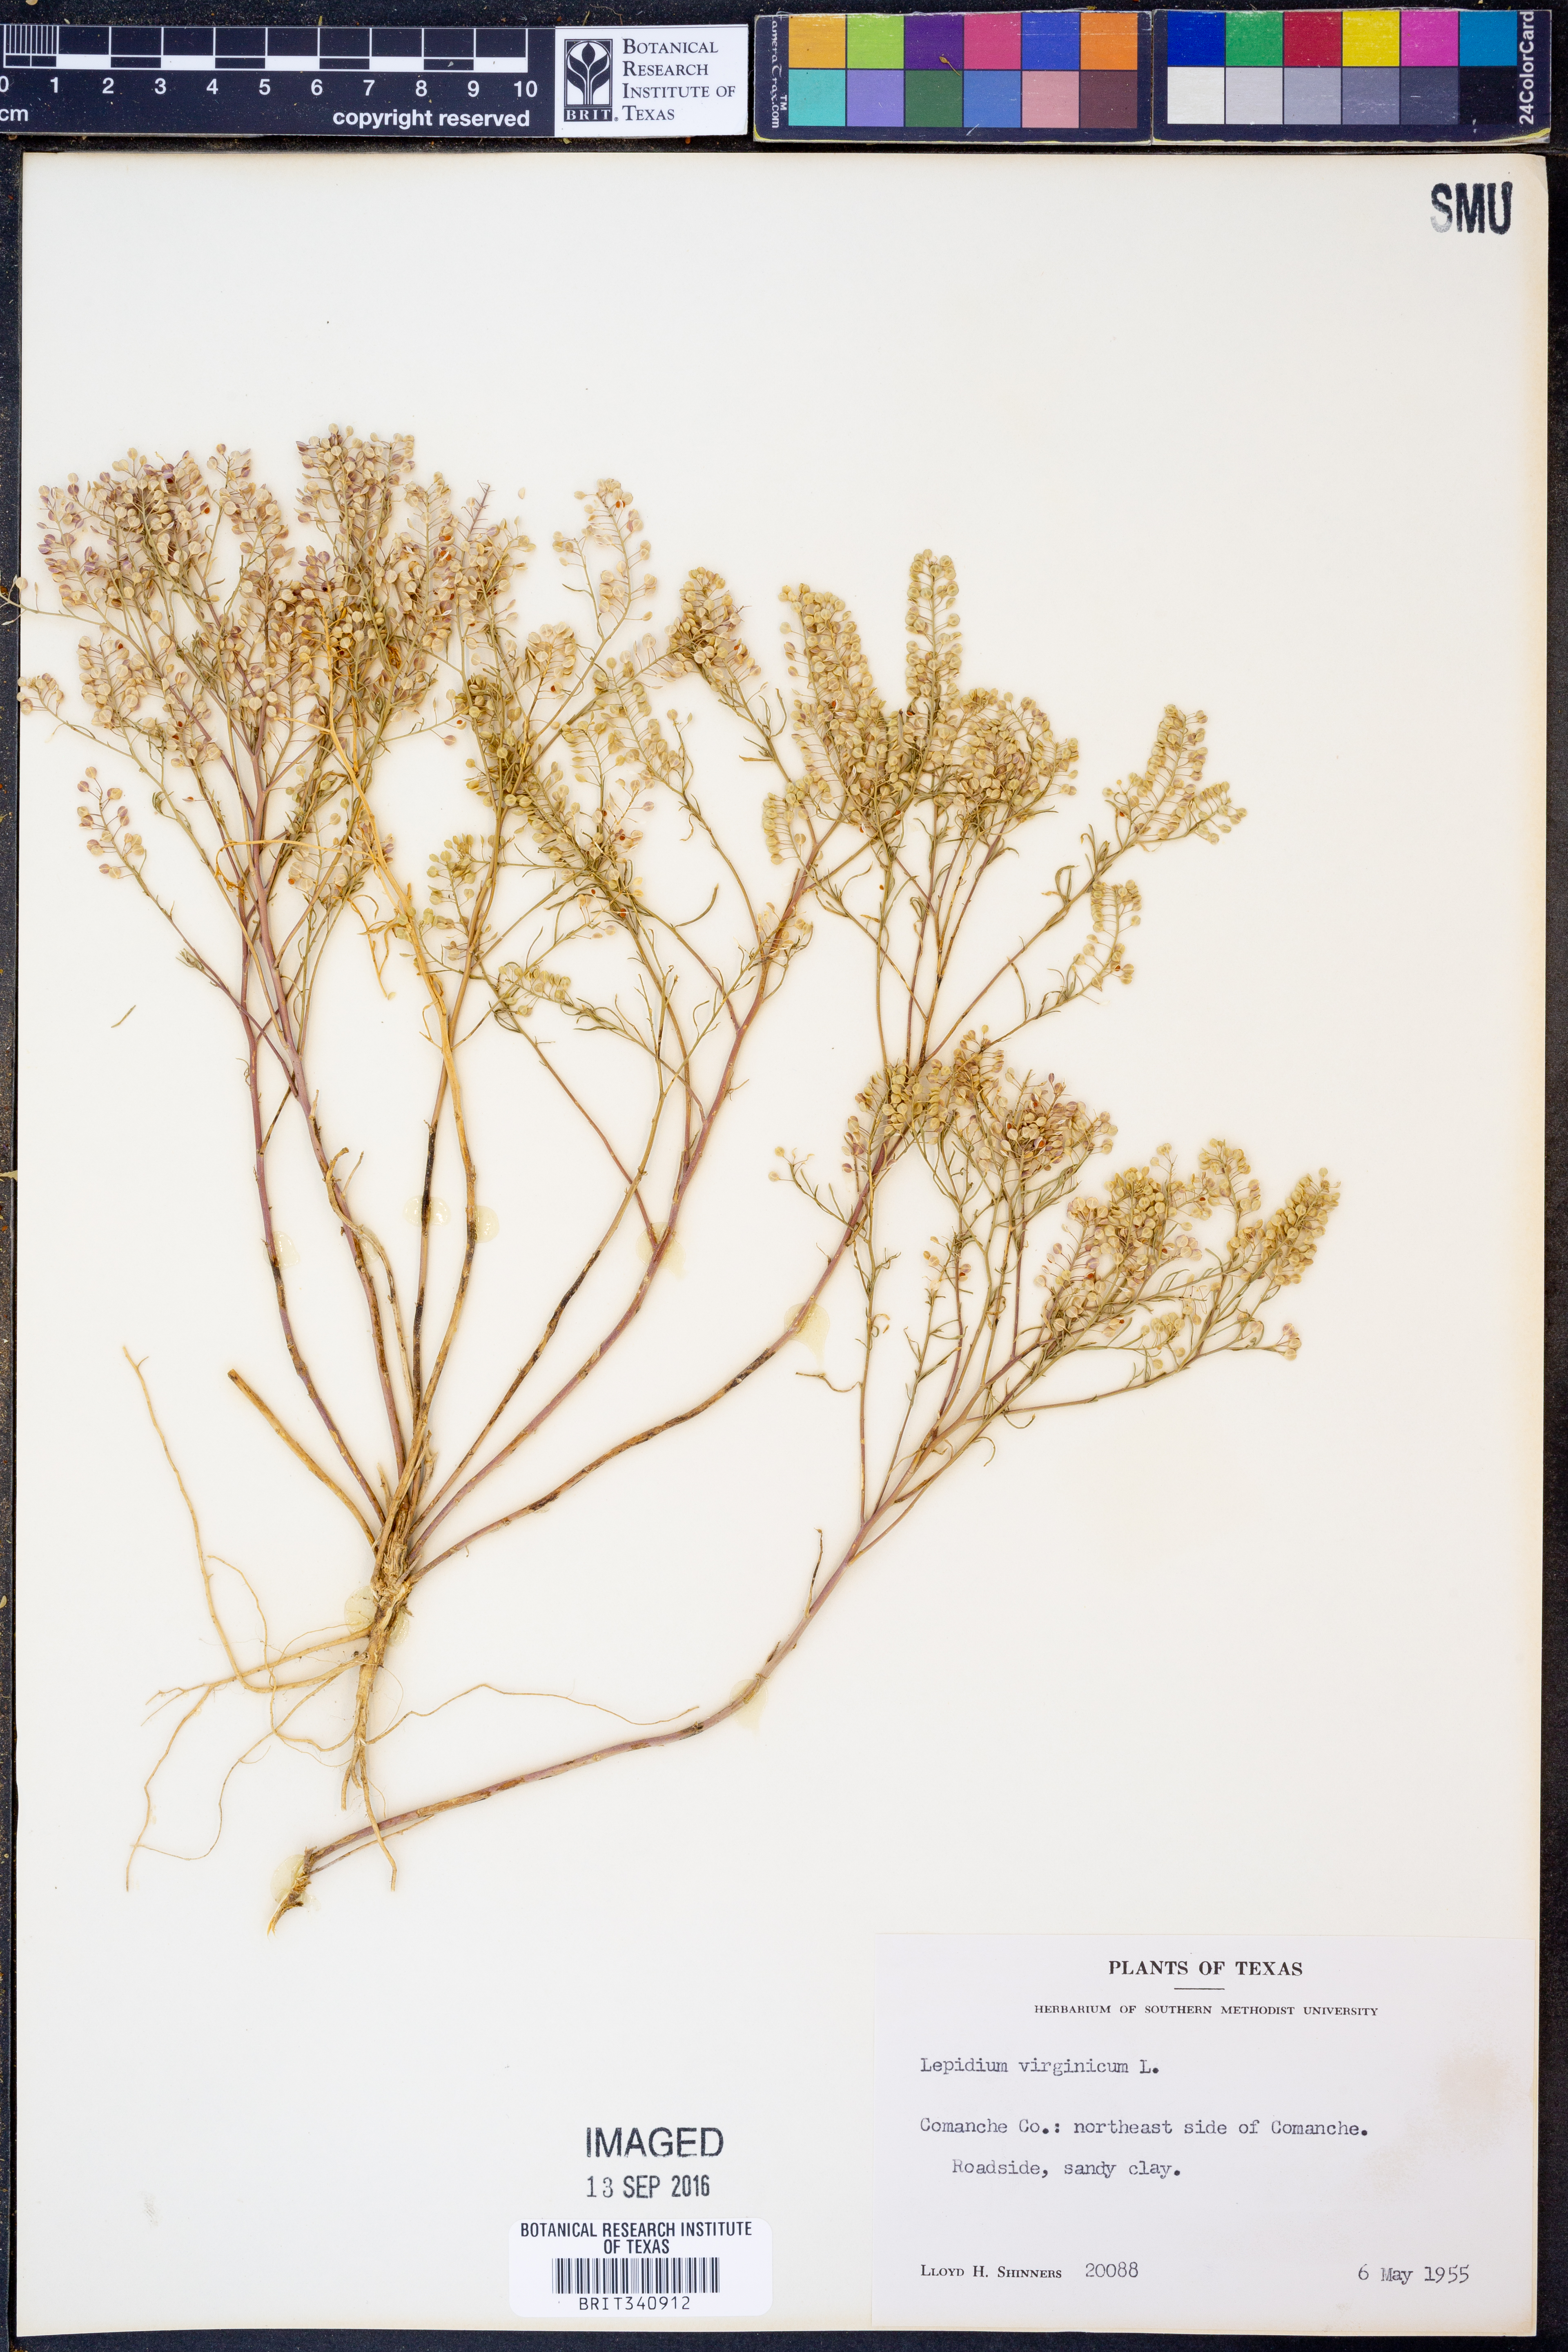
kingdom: Plantae
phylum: Tracheophyta
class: Magnoliopsida
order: Brassicales
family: Brassicaceae
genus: Lepidium
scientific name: Lepidium virginicum
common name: Least pepperwort
